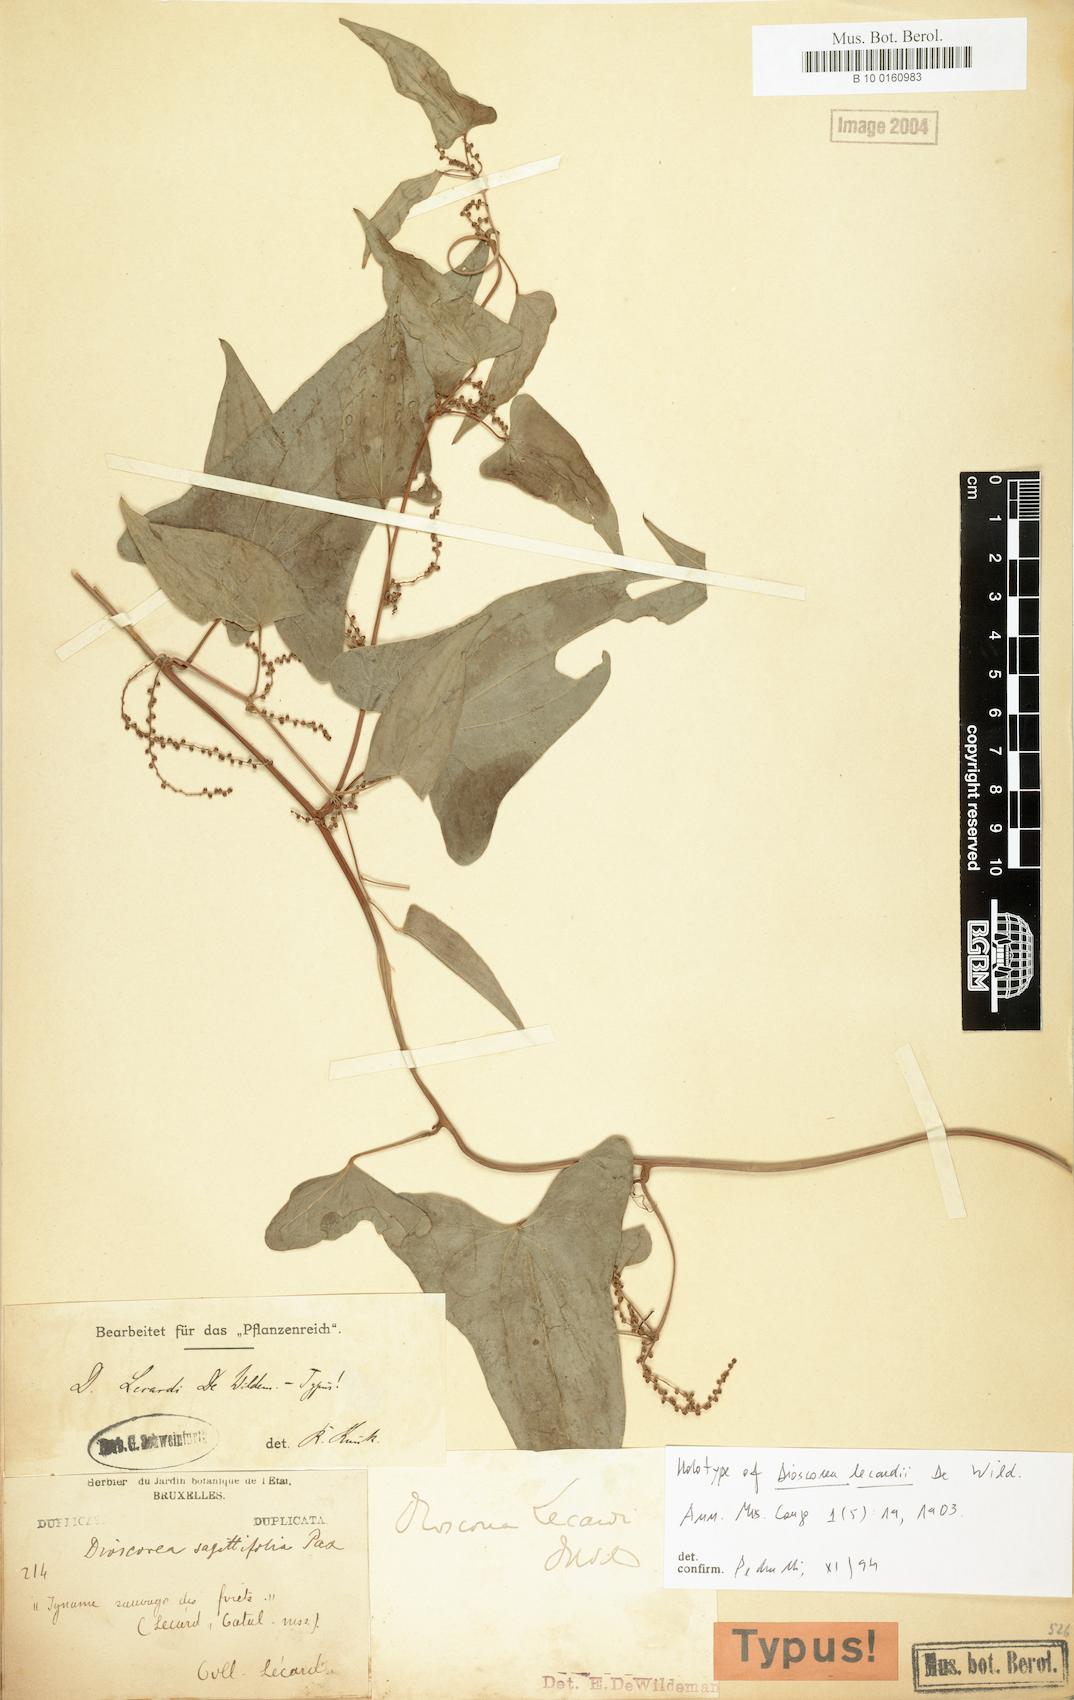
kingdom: Plantae
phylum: Tracheophyta
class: Liliopsida
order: Dioscoreales
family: Dioscoreaceae
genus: Dioscorea
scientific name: Dioscorea sagittifolia
